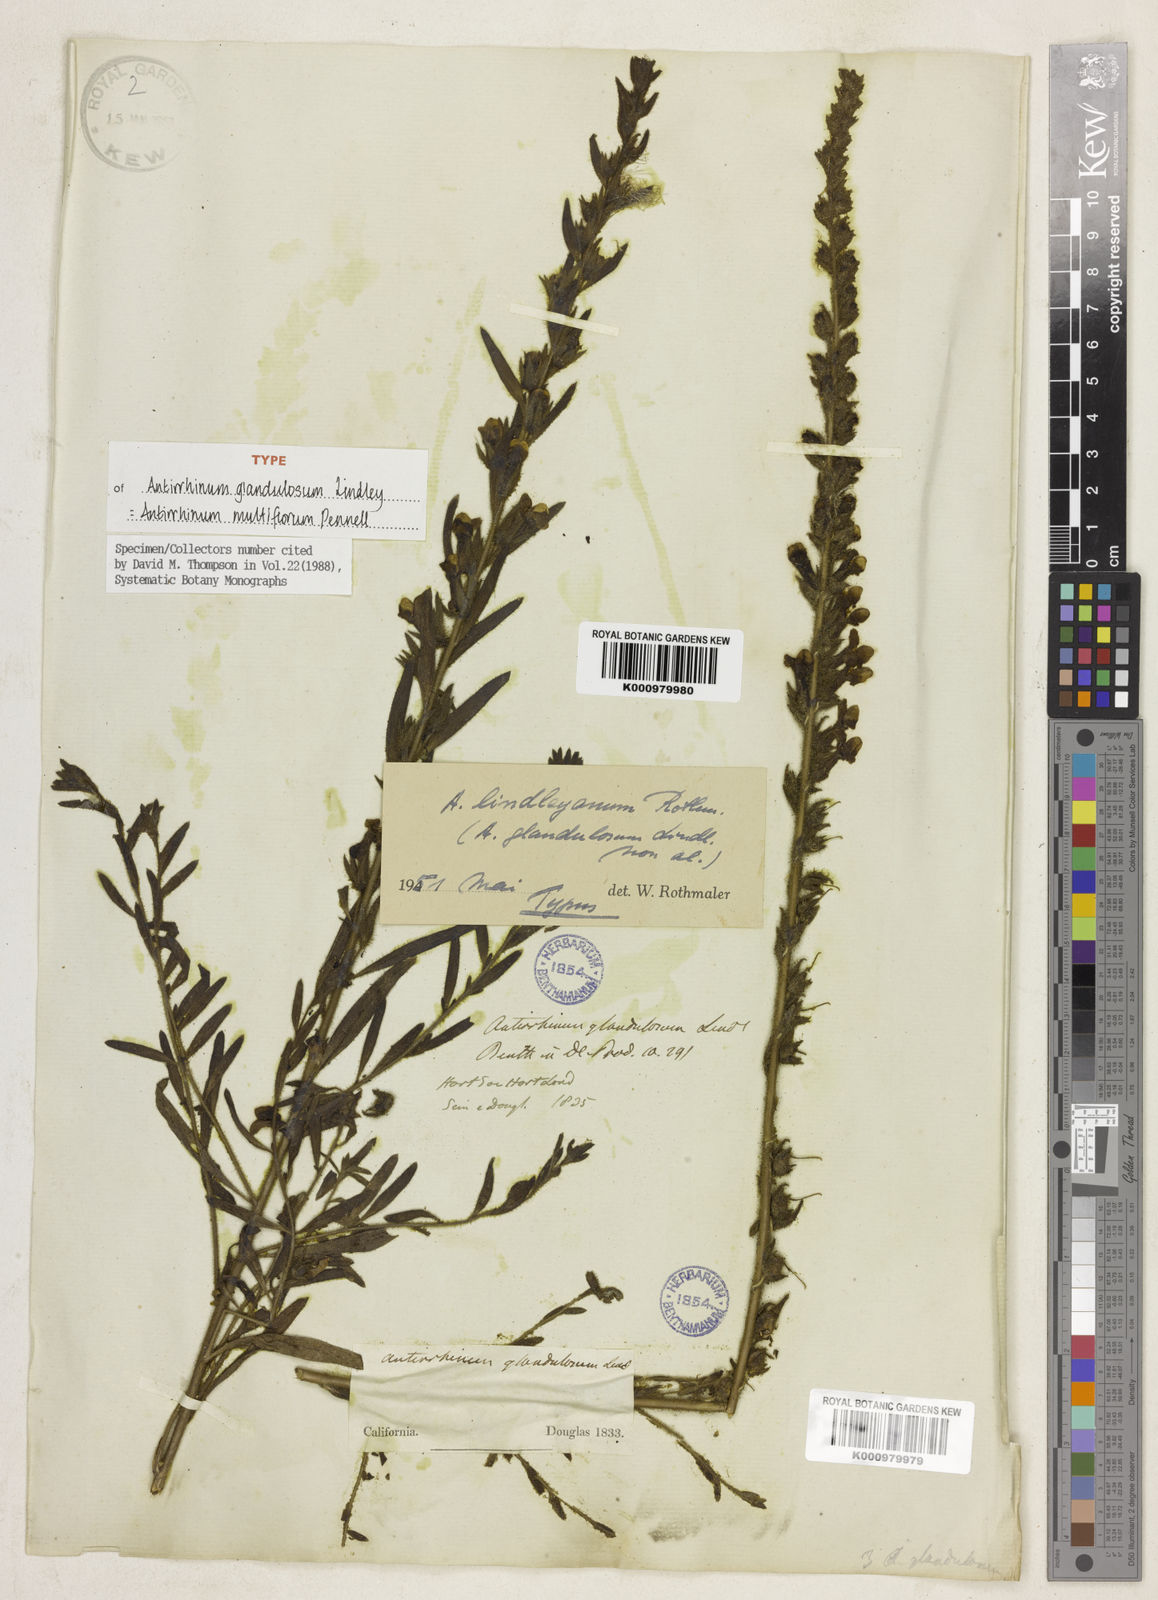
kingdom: Plantae
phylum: Tracheophyta
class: Magnoliopsida
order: Lamiales
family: Plantaginaceae
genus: Sairocarpus
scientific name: Sairocarpus multiflorus
